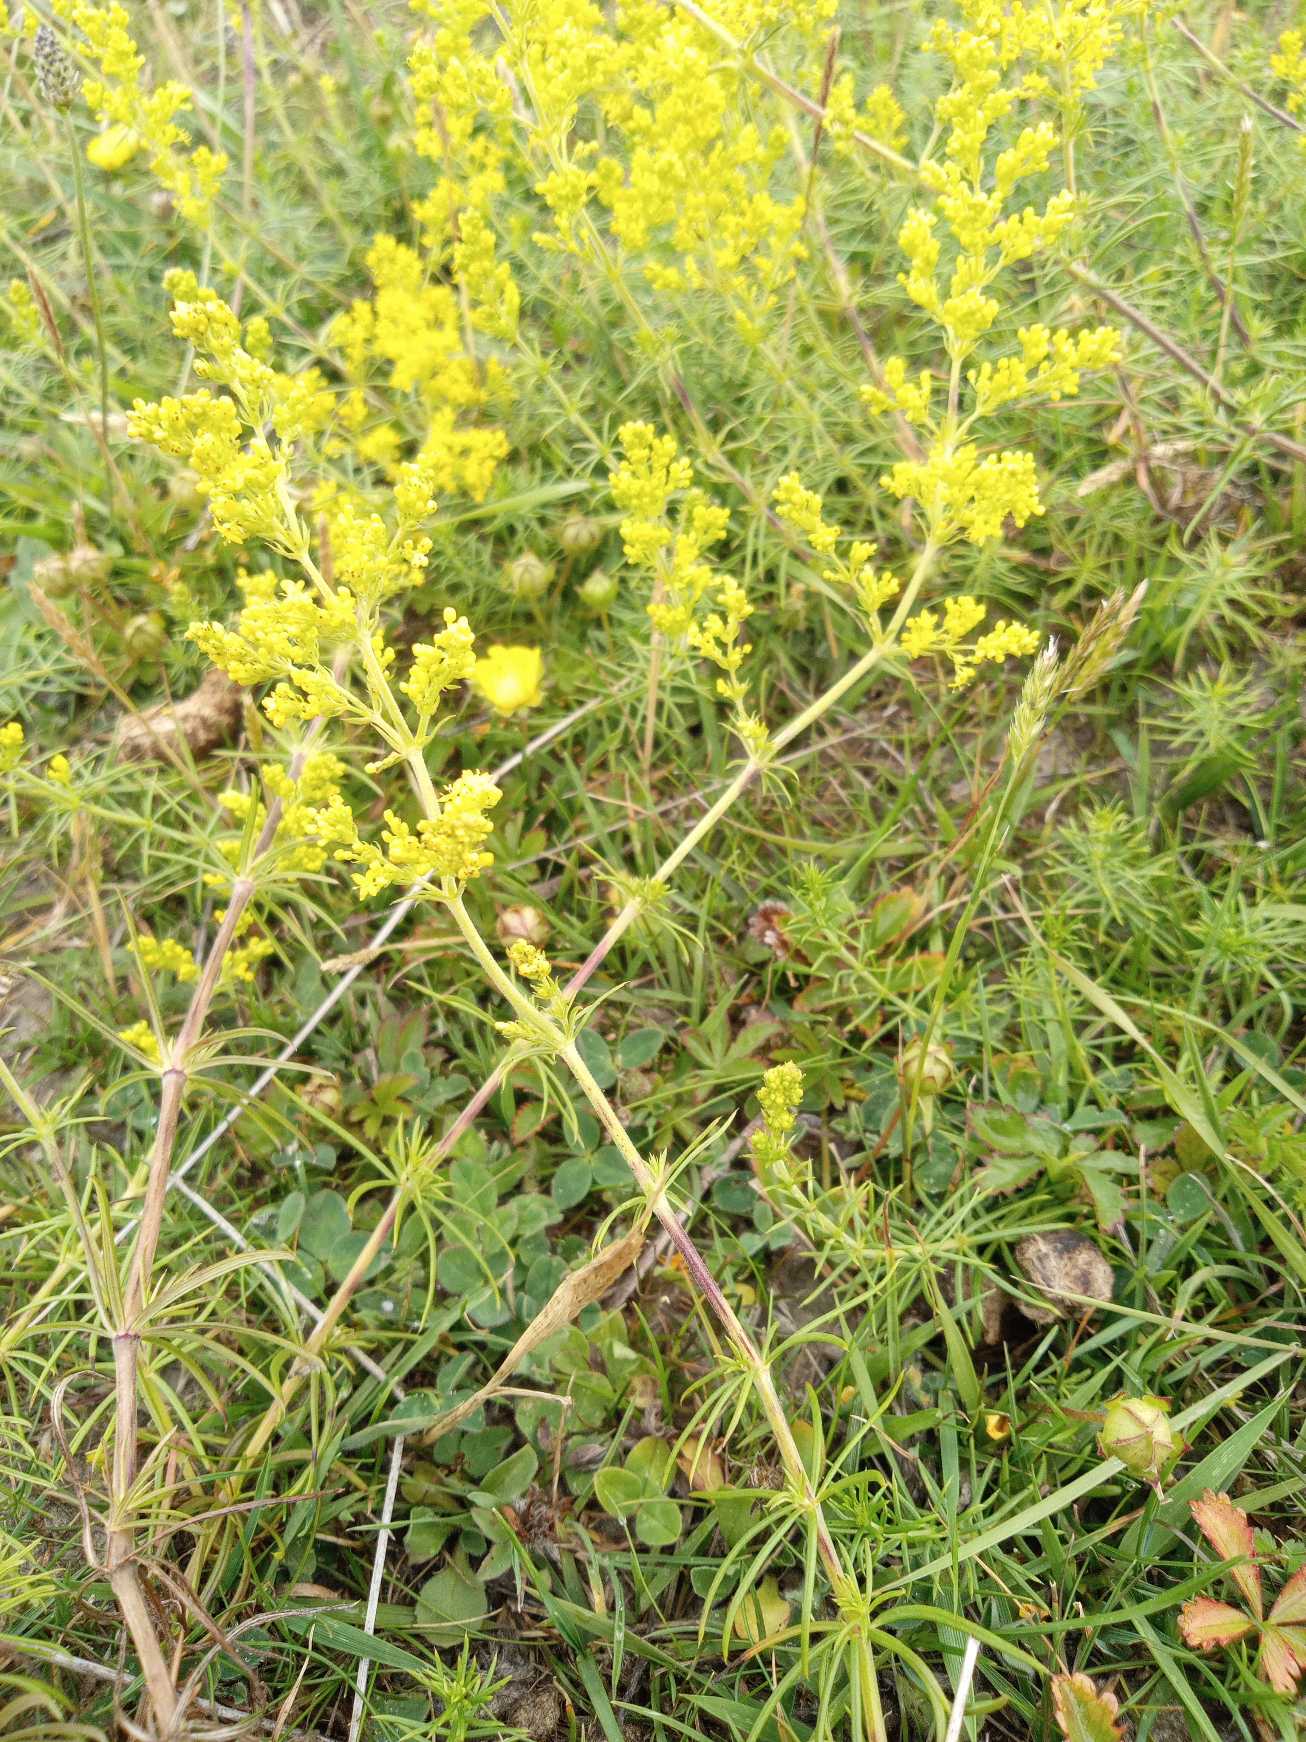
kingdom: Plantae
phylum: Tracheophyta
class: Magnoliopsida
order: Gentianales
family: Rubiaceae
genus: Galium
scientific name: Galium verum
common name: Gul snerre
